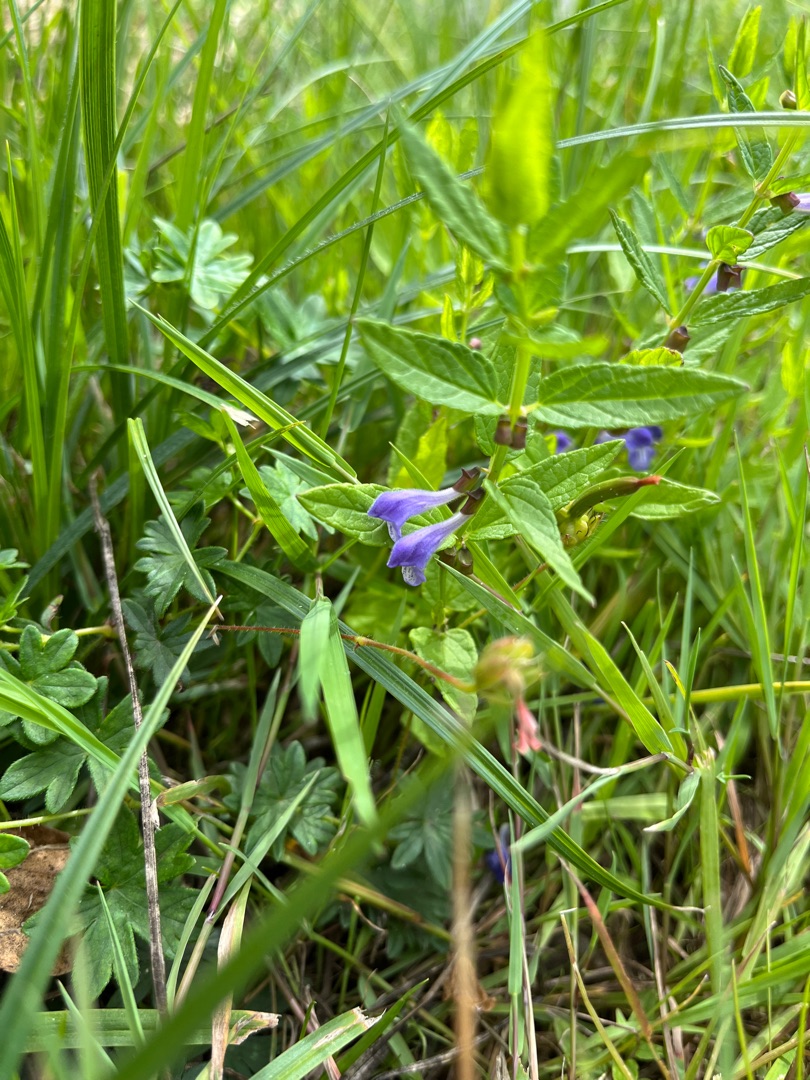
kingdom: Plantae
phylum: Tracheophyta
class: Magnoliopsida
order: Lamiales
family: Lamiaceae
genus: Scutellaria
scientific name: Scutellaria galericulata
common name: Almindelig skjolddrager
